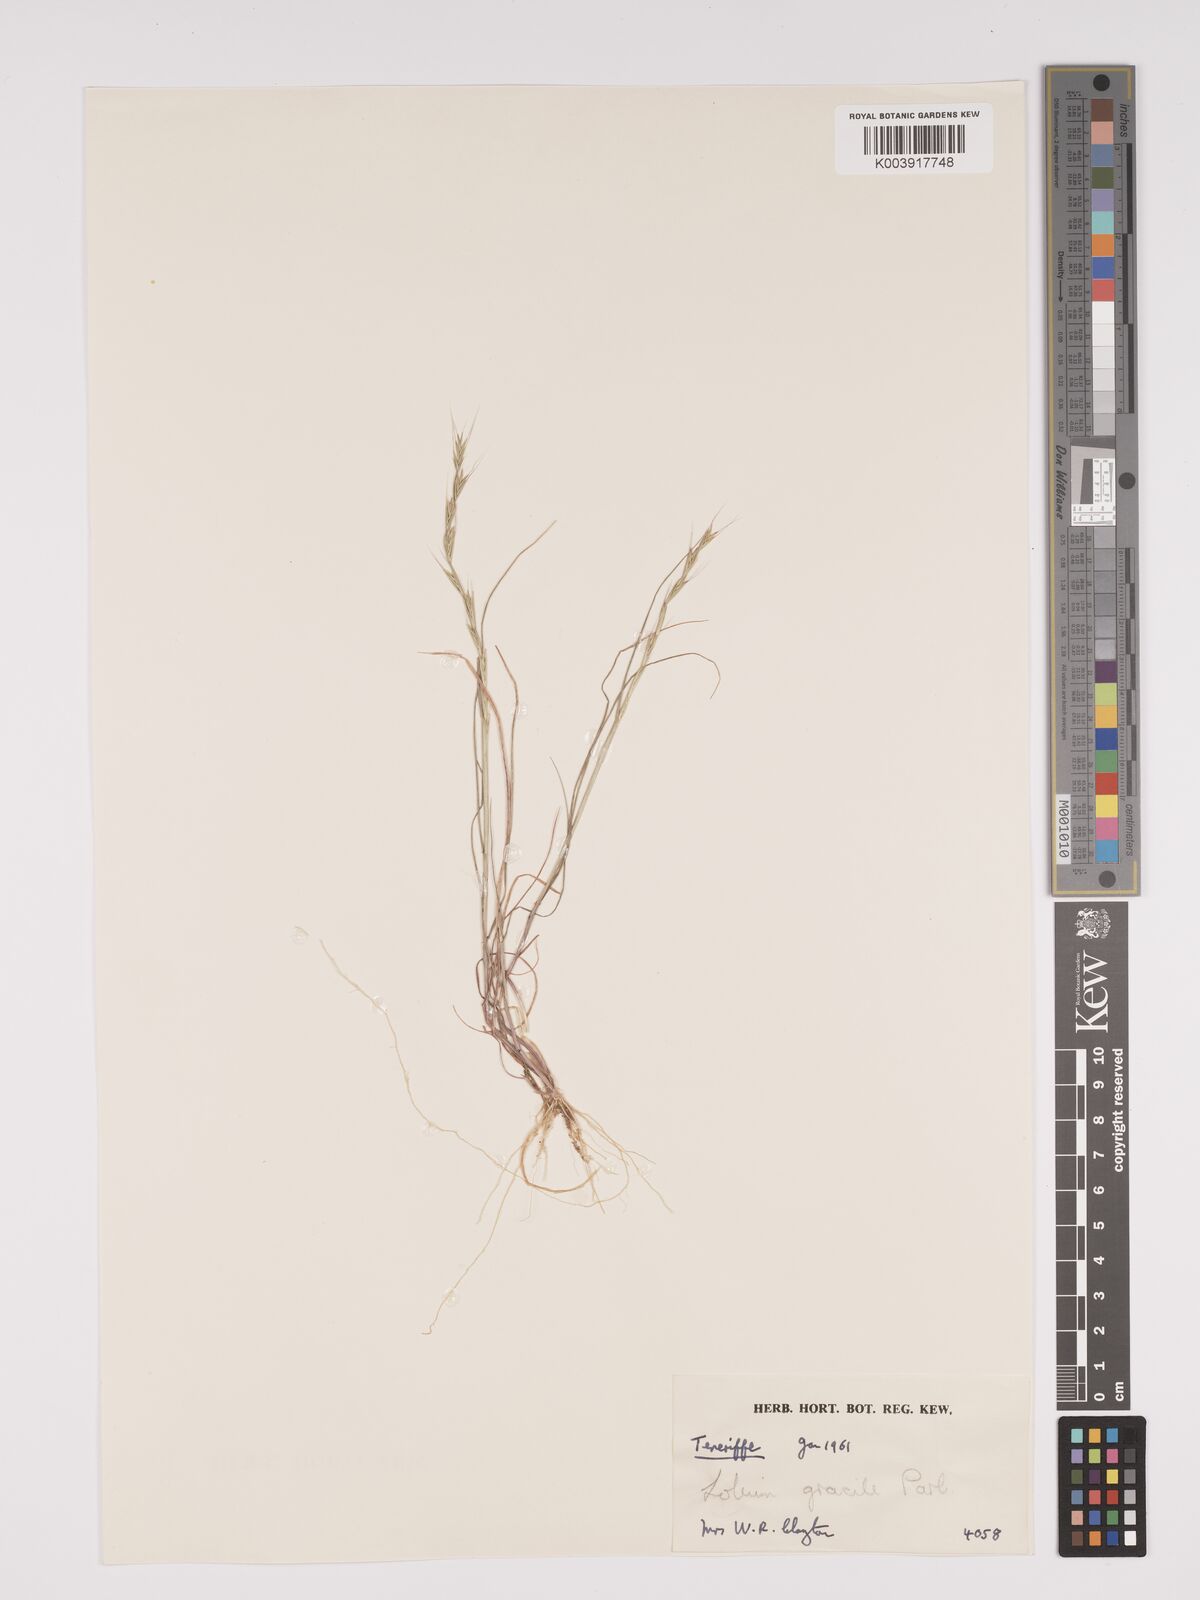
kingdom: Plantae
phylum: Tracheophyta
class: Liliopsida
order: Poales
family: Poaceae
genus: Lolium
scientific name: Lolium canariense
